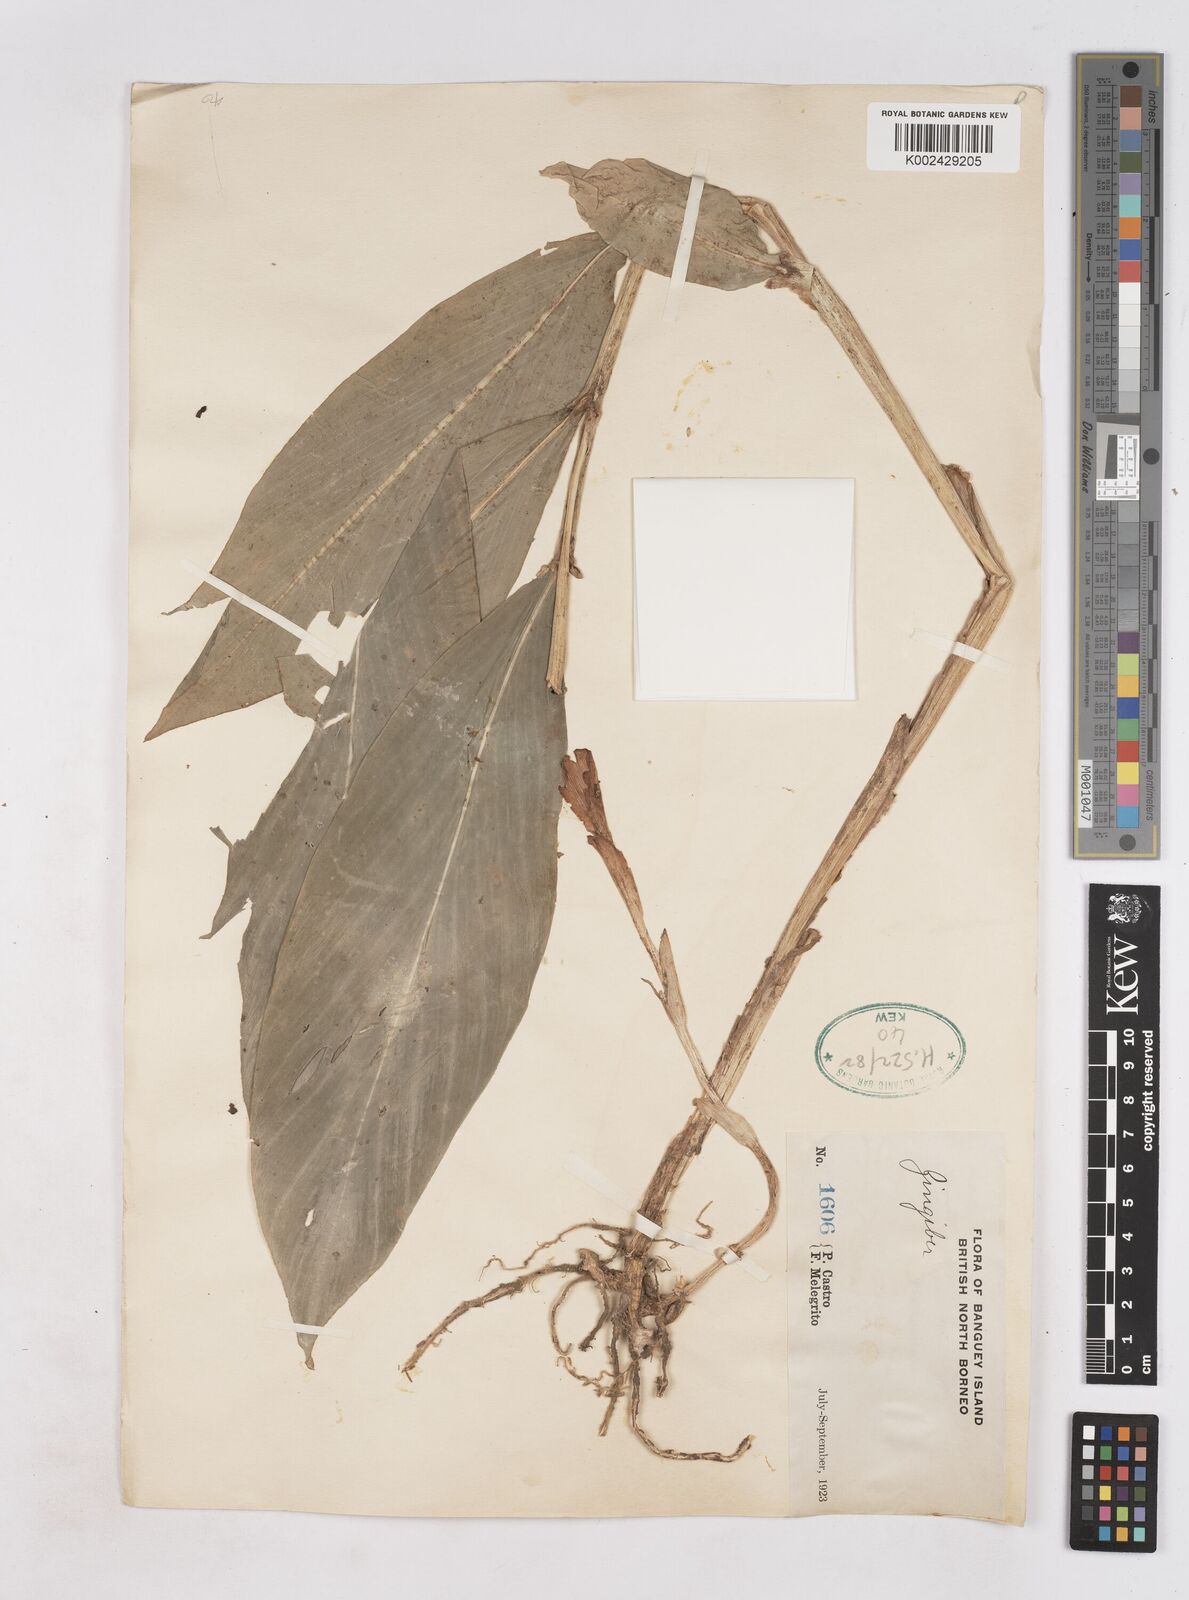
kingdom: Plantae
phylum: Tracheophyta
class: Liliopsida
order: Zingiberales
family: Zingiberaceae
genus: Zingiber
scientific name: Zingiber
